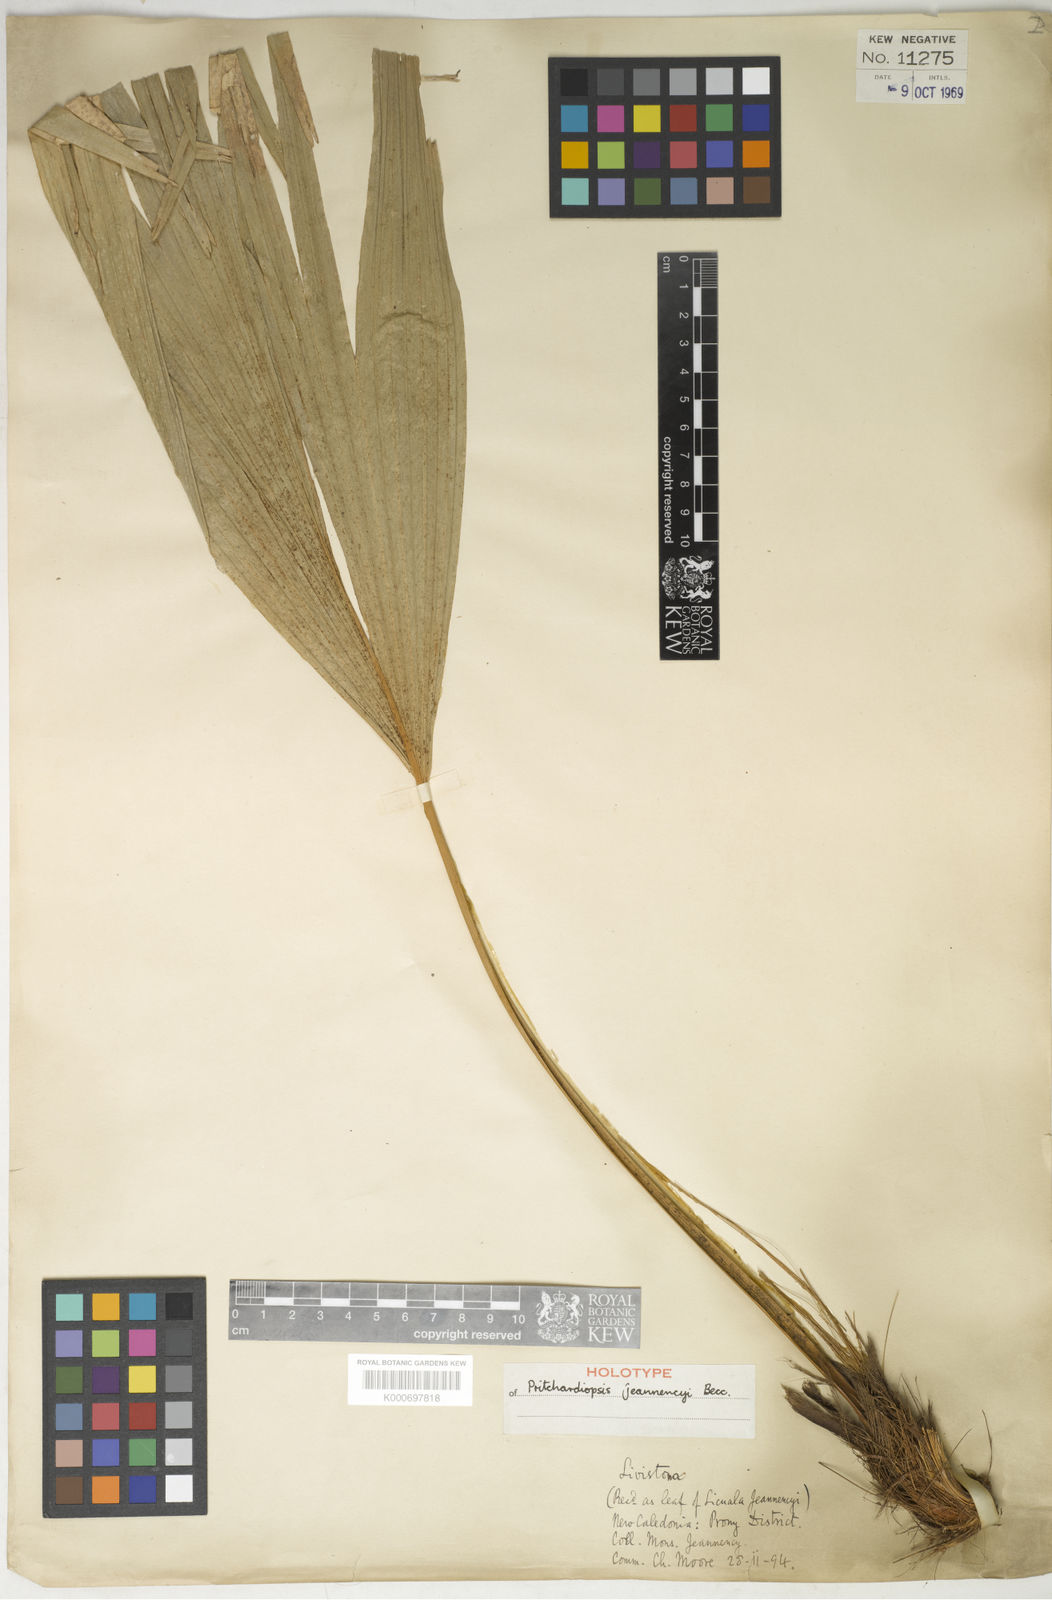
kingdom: Plantae
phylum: Tracheophyta
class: Liliopsida
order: Arecales
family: Arecaceae
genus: Saribus
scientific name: Saribus jeanneneyi
